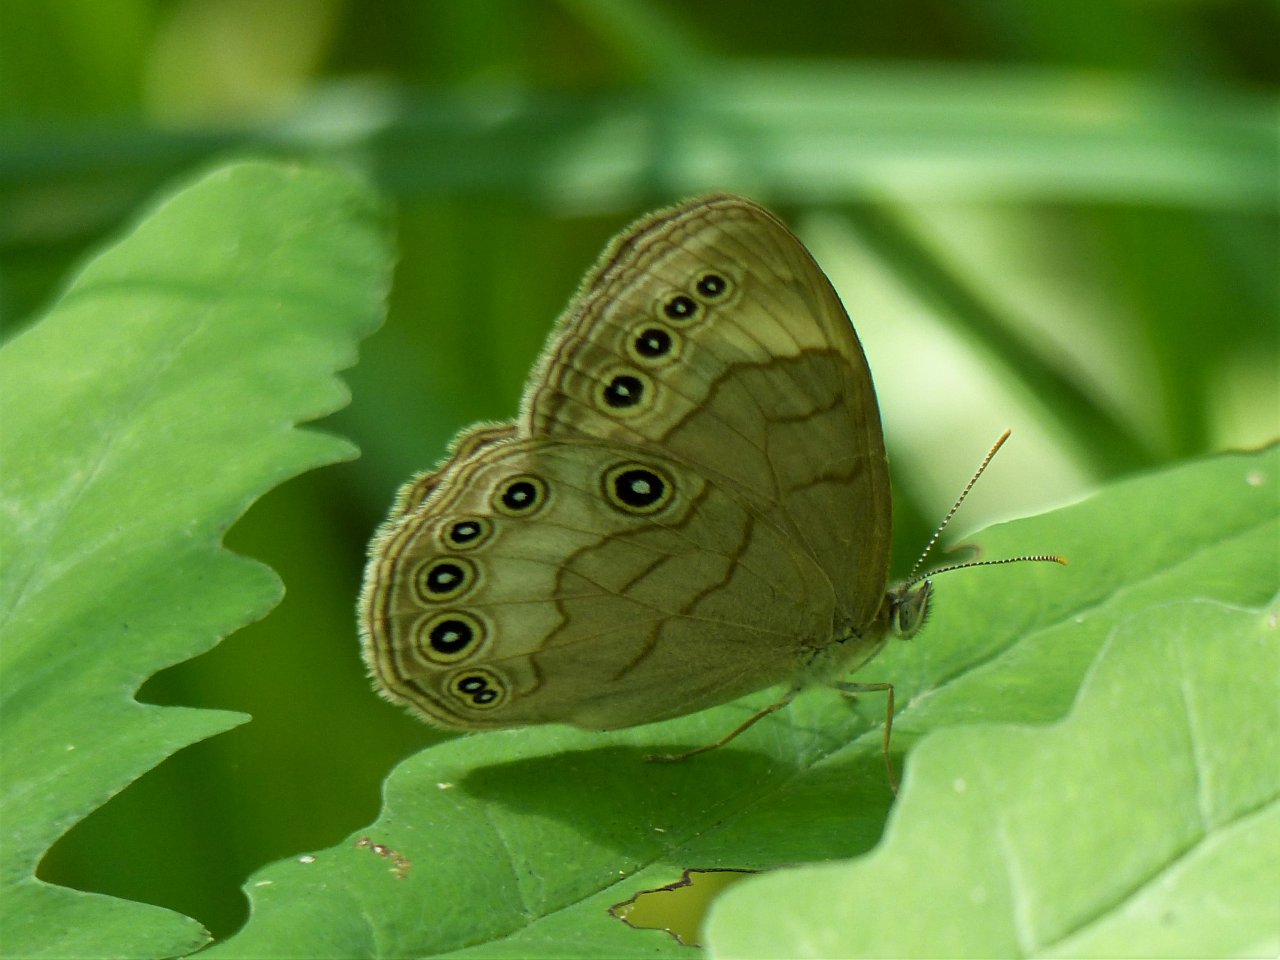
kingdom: Animalia
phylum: Arthropoda
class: Insecta
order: Lepidoptera
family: Nymphalidae
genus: Lethe
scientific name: Lethe eurydice
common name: Appalachian Eyed Brown
